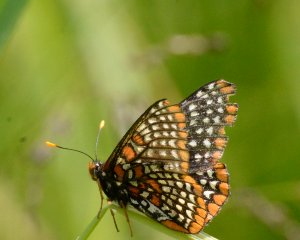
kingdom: Animalia
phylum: Arthropoda
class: Insecta
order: Lepidoptera
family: Nymphalidae
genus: Euphydryas
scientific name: Euphydryas phaeton
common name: Baltimore Checkerspot
